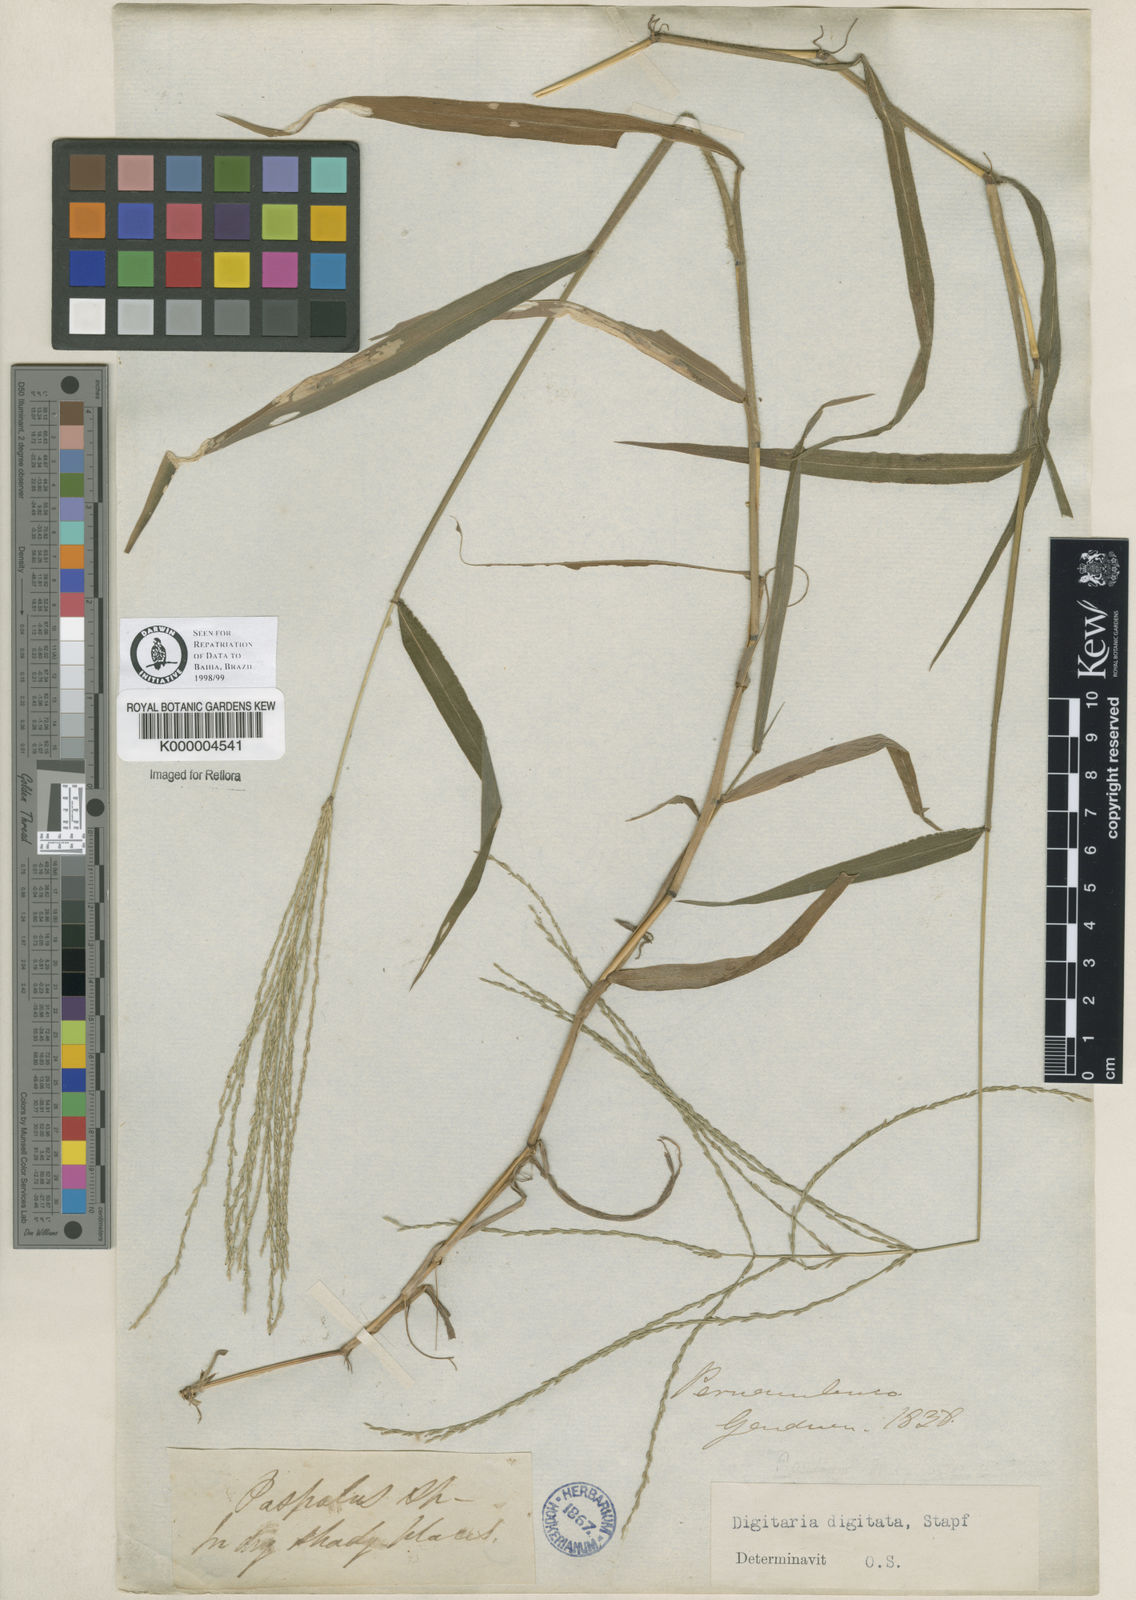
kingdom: Plantae
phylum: Tracheophyta
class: Liliopsida
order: Poales
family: Poaceae
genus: Digitaria
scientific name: Digitaria horizontalis
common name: Jamaican crabgrass
